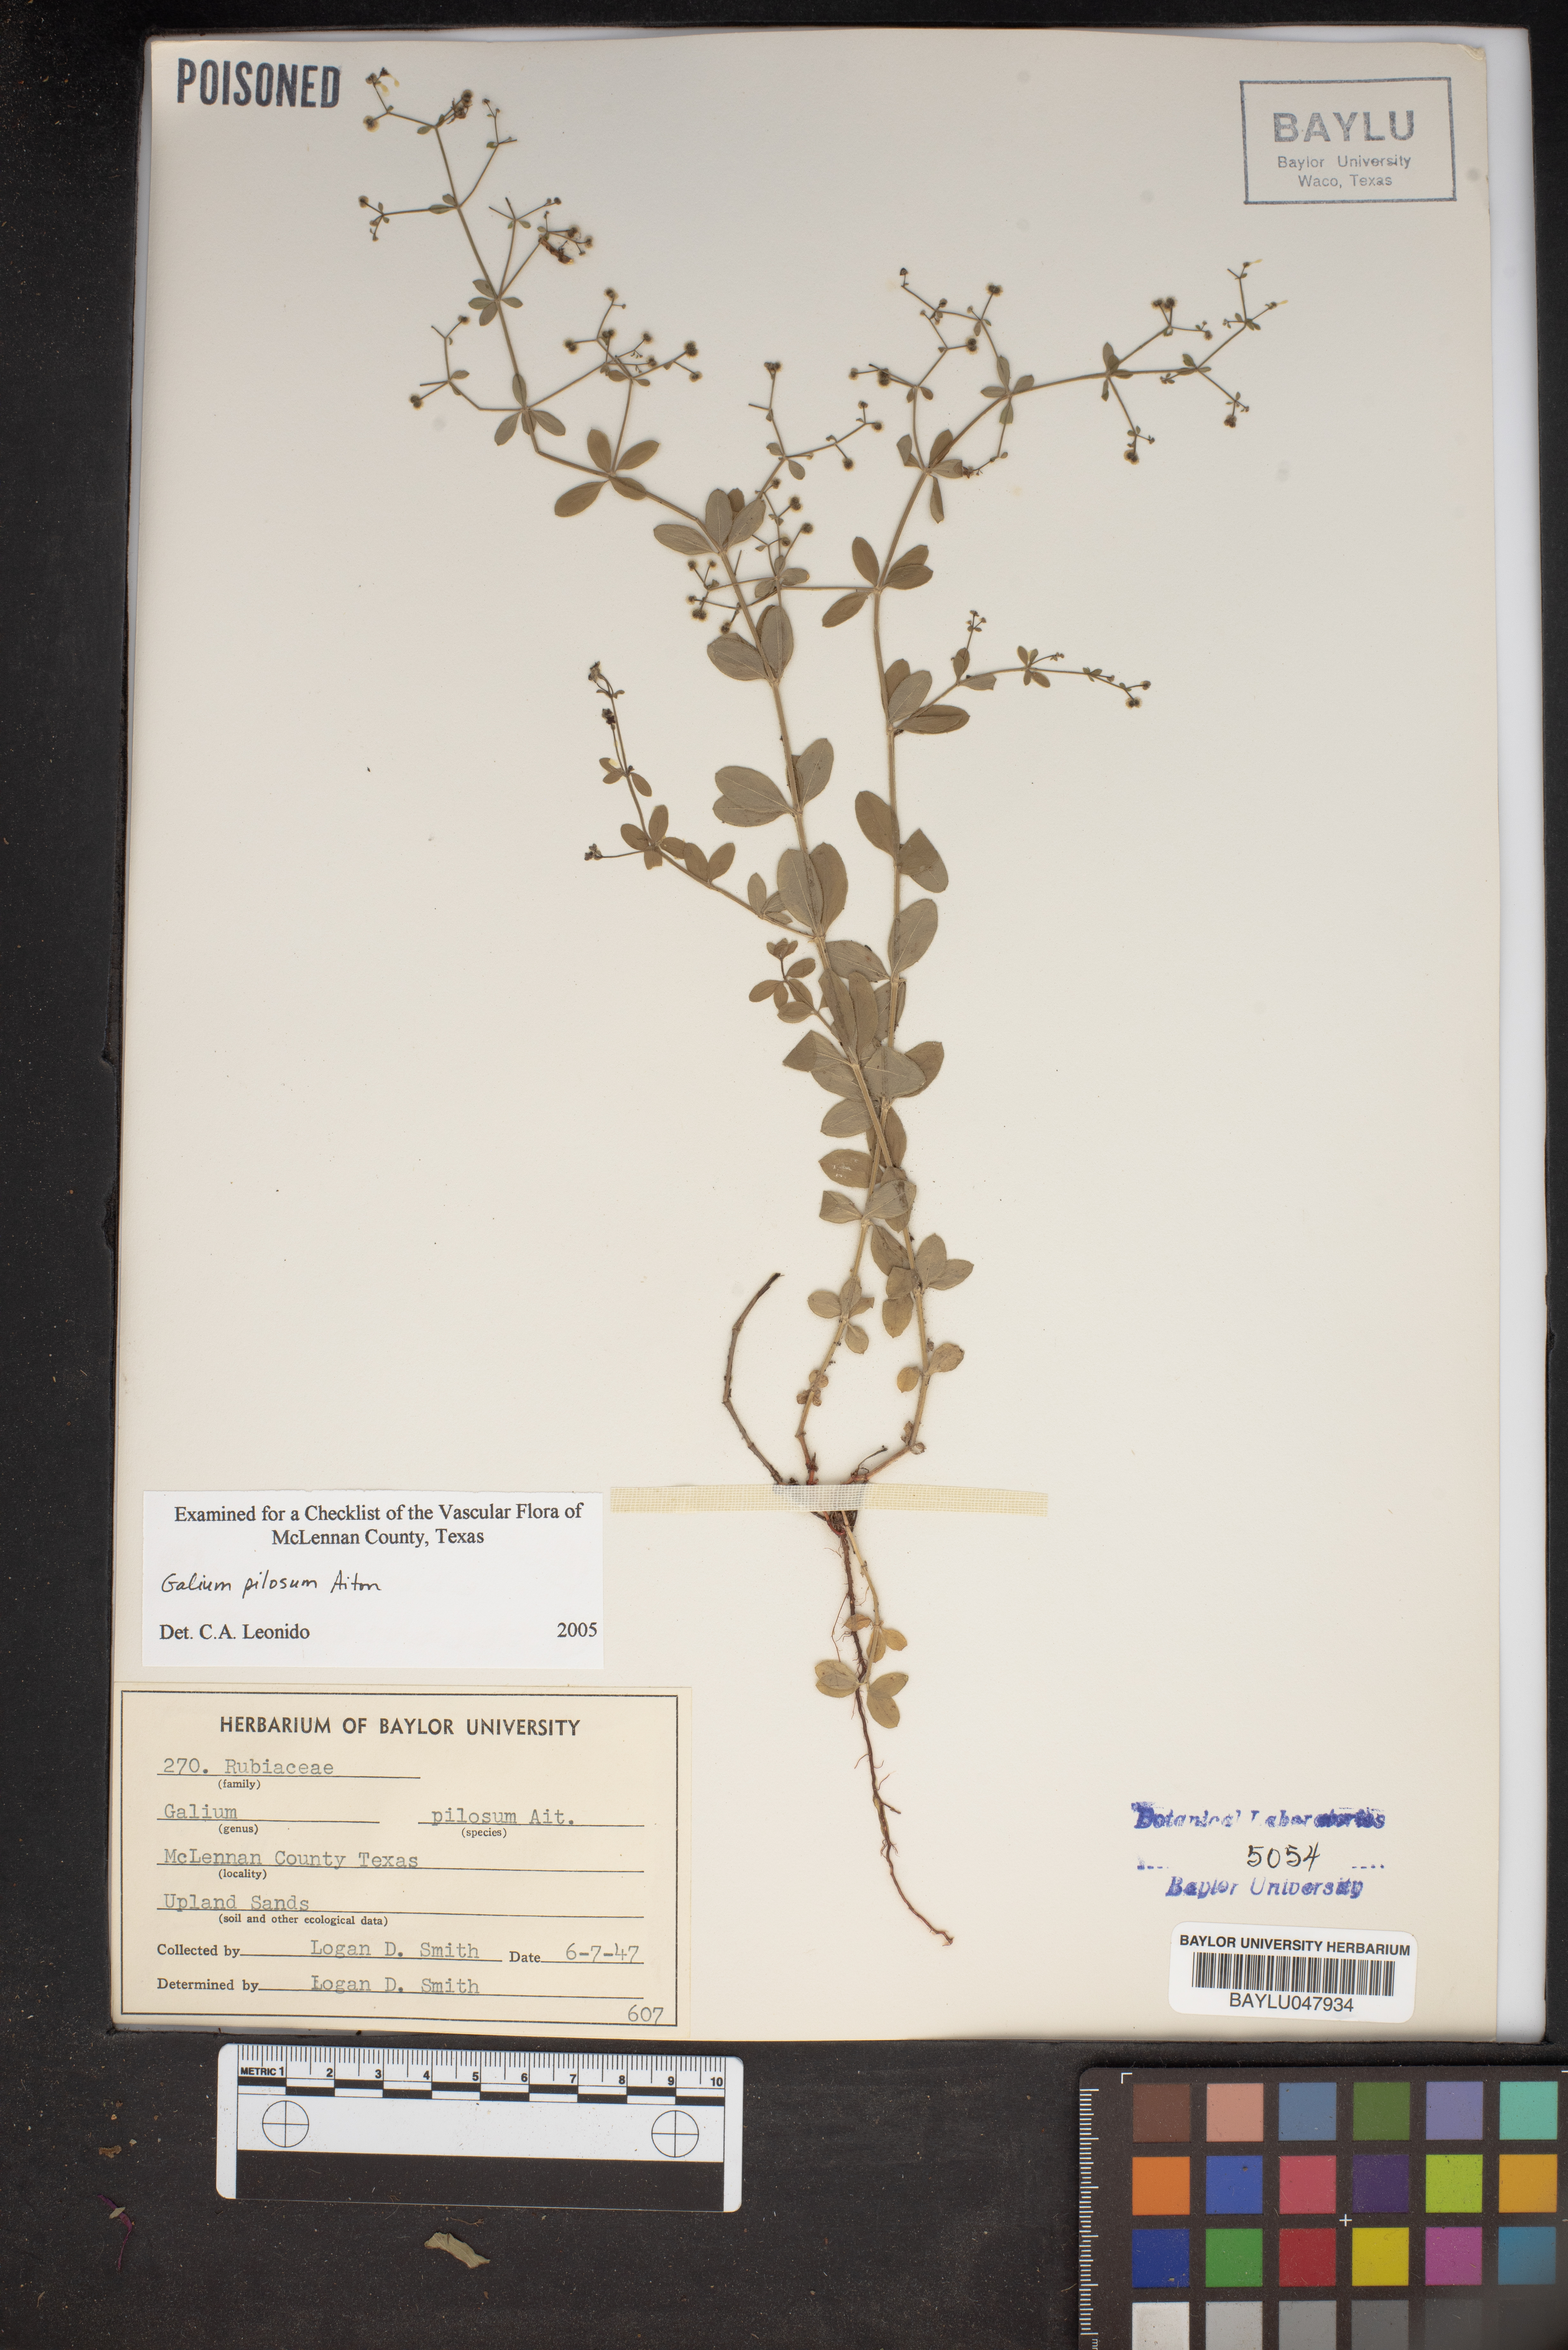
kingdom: Plantae
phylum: Tracheophyta
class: Magnoliopsida
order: Gentianales
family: Rubiaceae
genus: Galium
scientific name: Galium pilosum
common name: Hairy bedstraw
